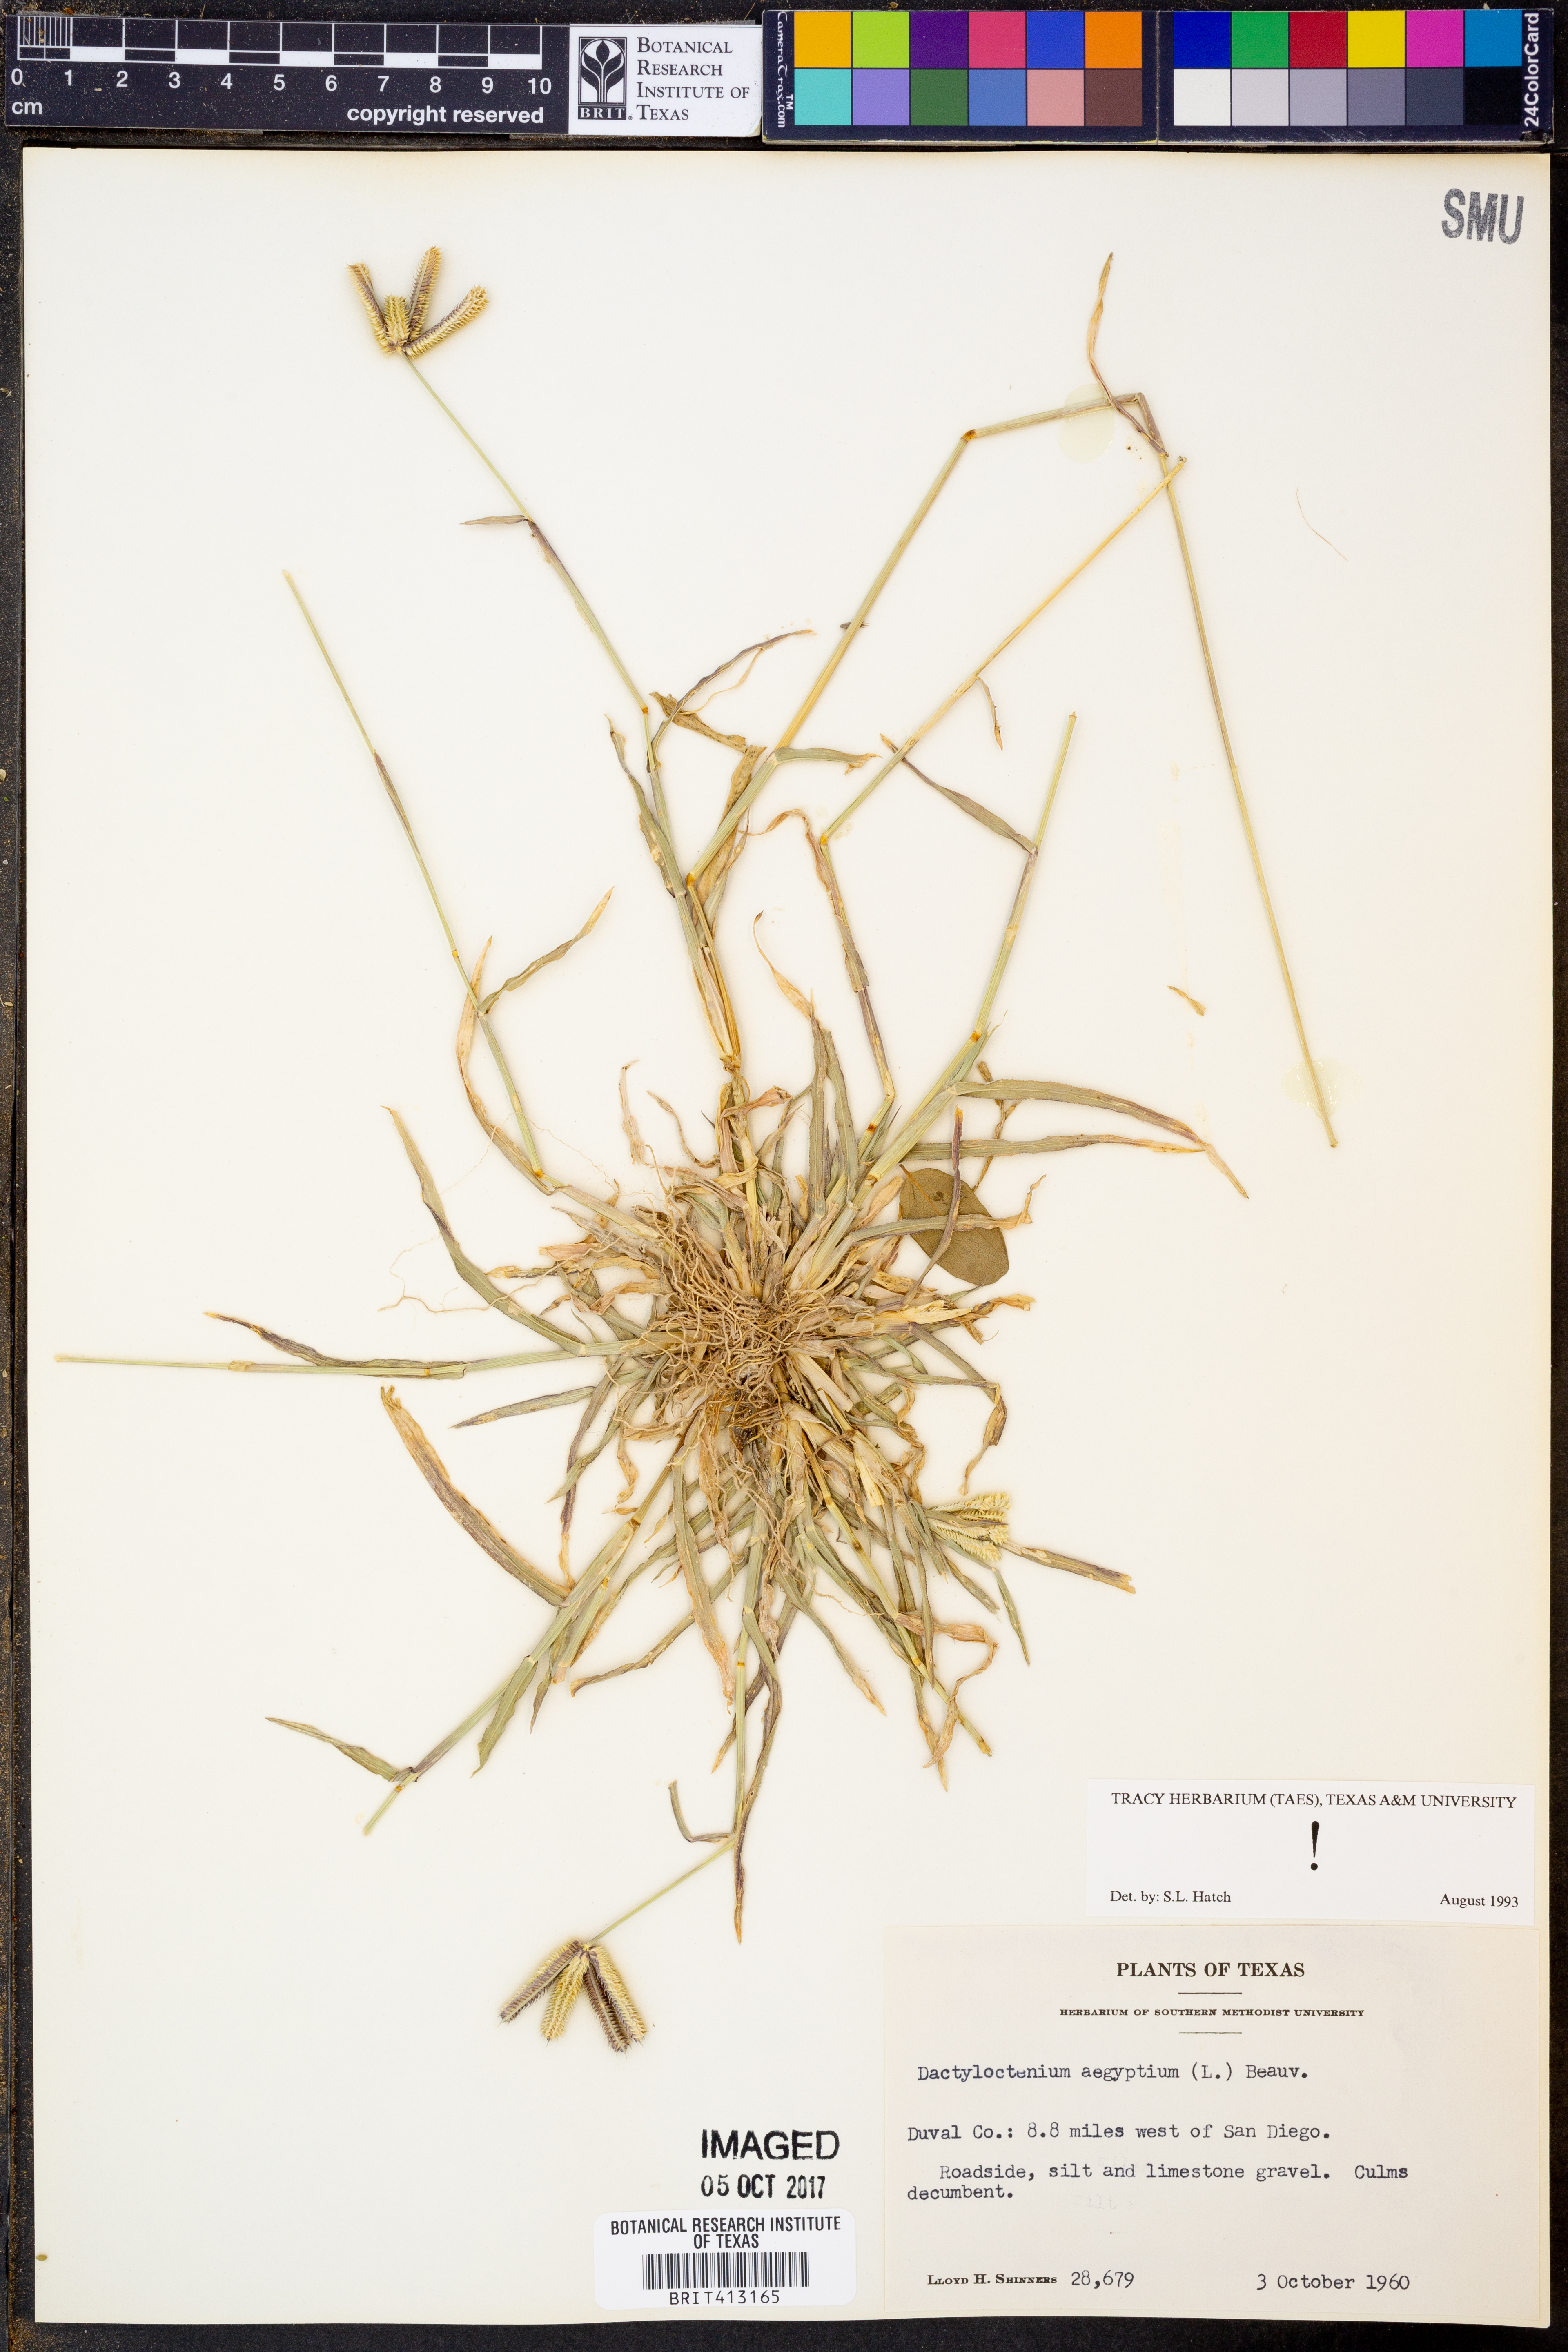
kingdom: Plantae
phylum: Tracheophyta
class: Liliopsida
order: Poales
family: Poaceae
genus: Dactyloctenium
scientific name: Dactyloctenium aegyptium
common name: Egyptian grass
